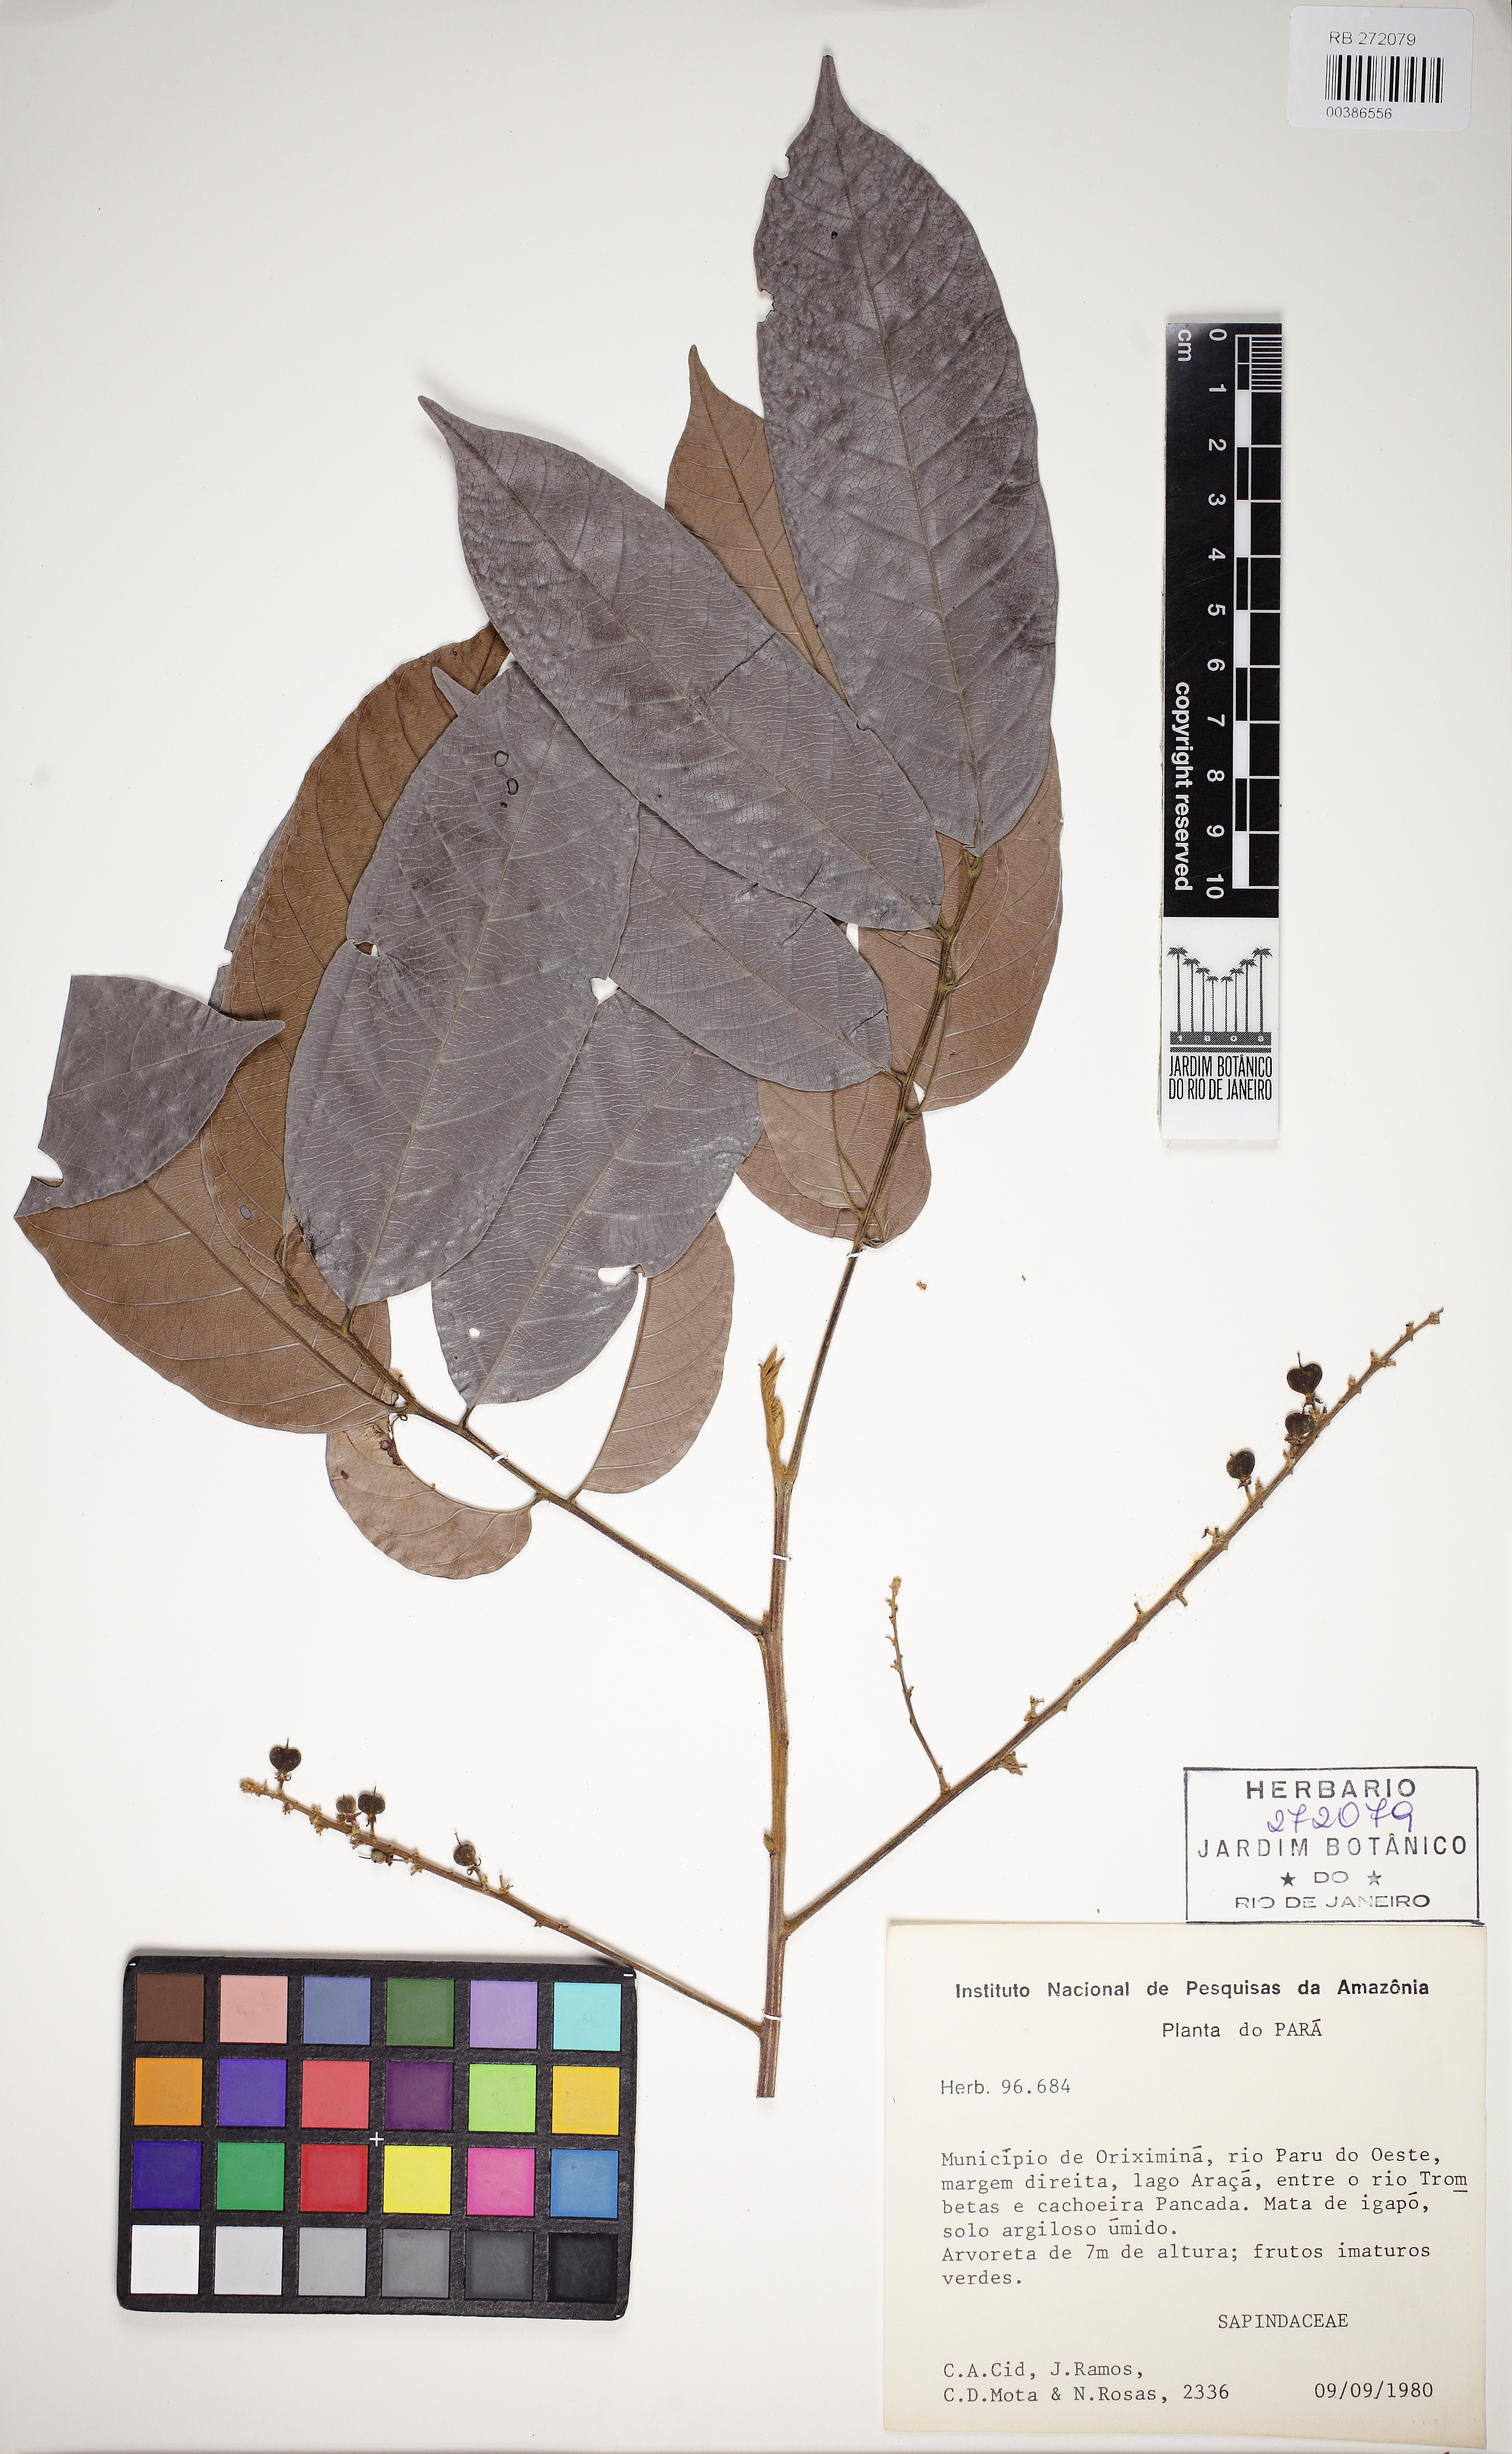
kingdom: Plantae
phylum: Tracheophyta
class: Magnoliopsida
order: Sapindales
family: Sapindaceae
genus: Matayba
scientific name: Matayba
